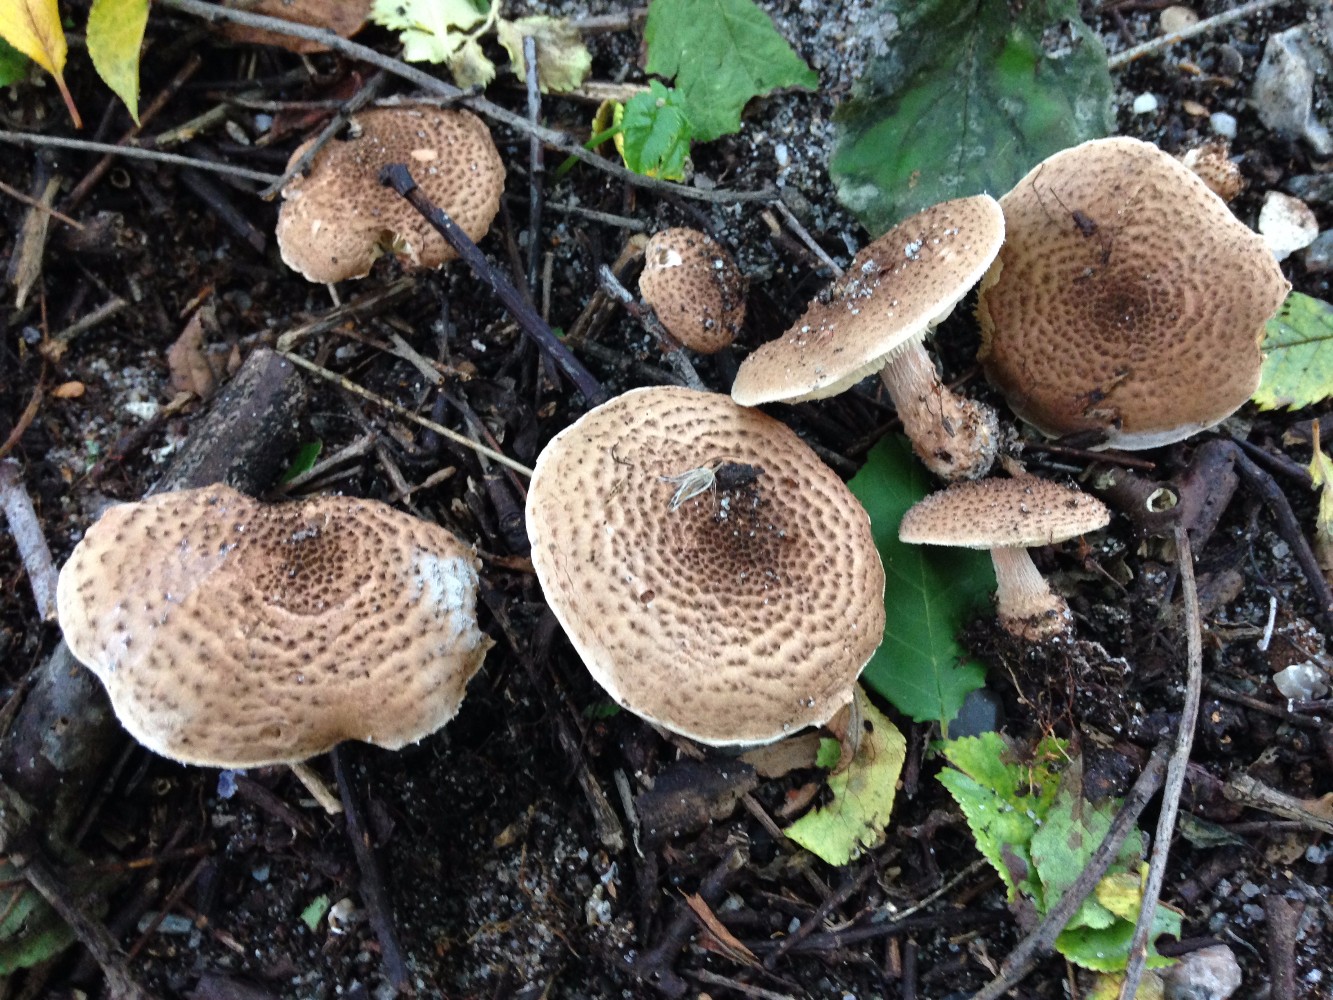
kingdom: Fungi
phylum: Basidiomycota
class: Agaricomycetes
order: Agaricales
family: Agaricaceae
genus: Echinoderma
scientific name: Echinoderma echinaceum
